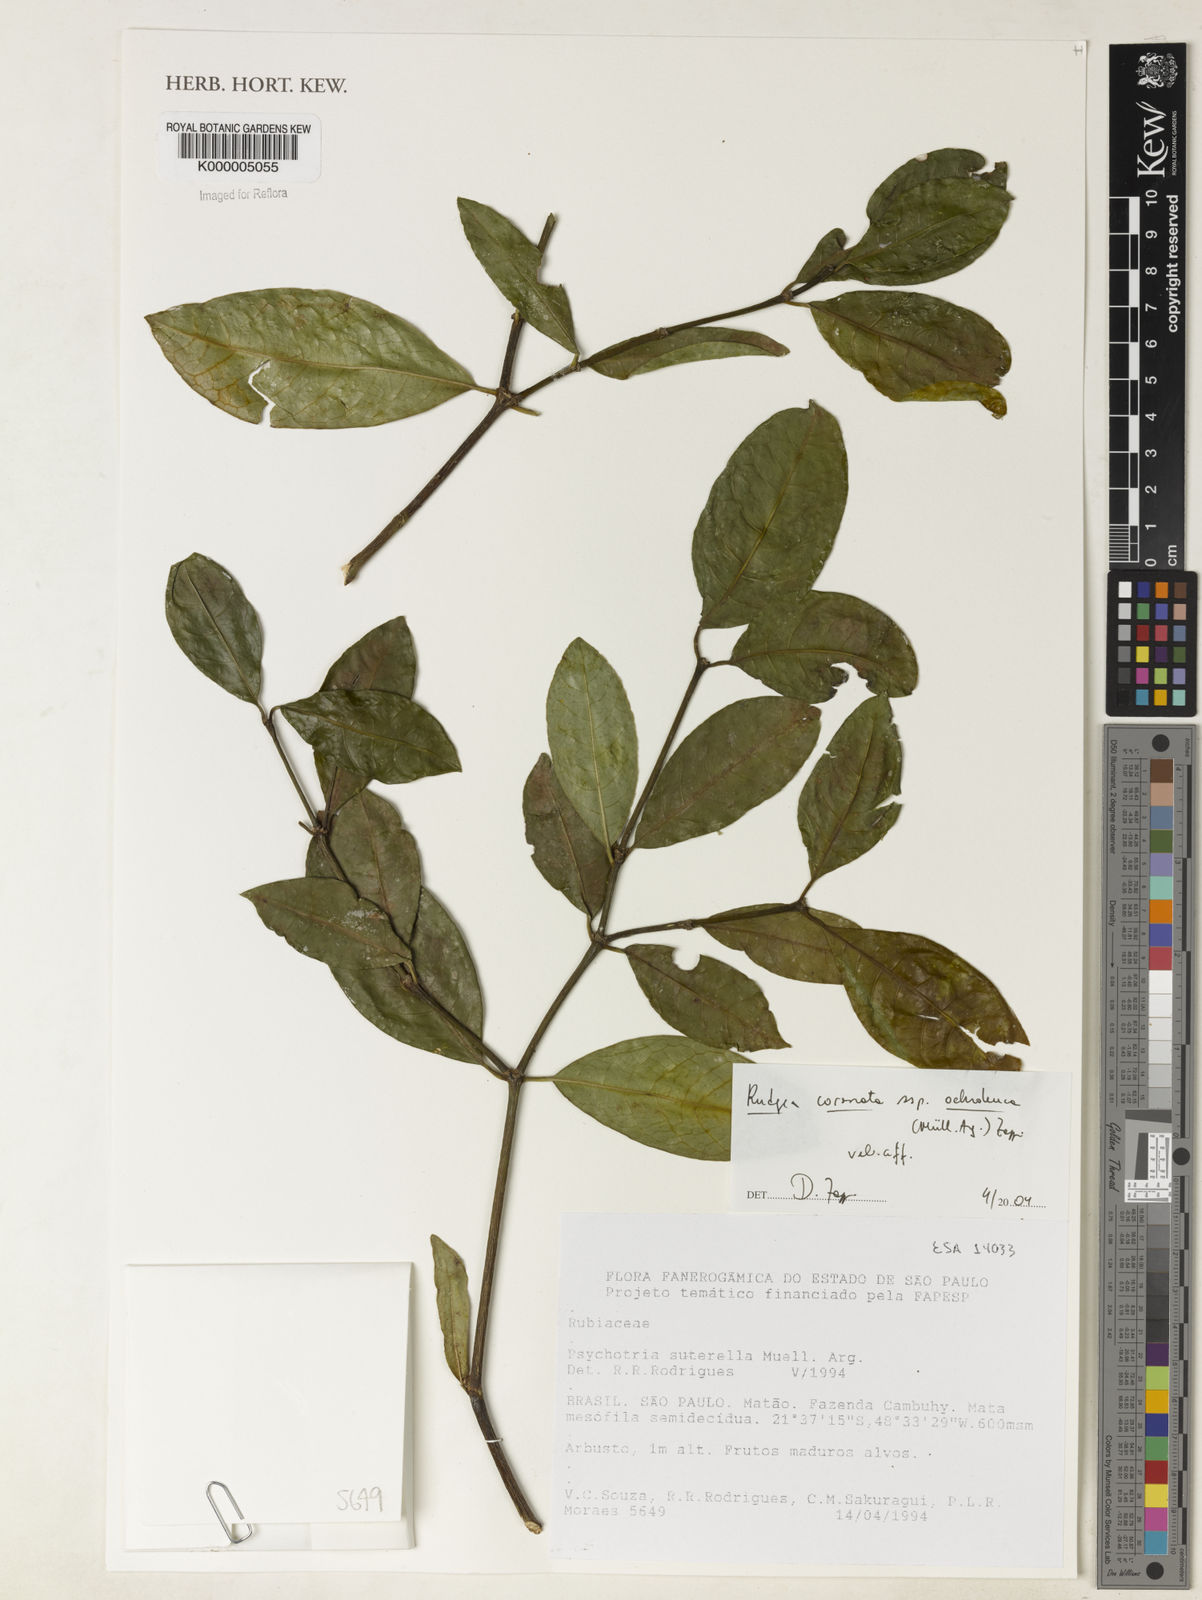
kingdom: Plantae
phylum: Tracheophyta
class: Magnoliopsida
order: Gentianales
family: Rubiaceae
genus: Rudgea
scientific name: Rudgea coronata
